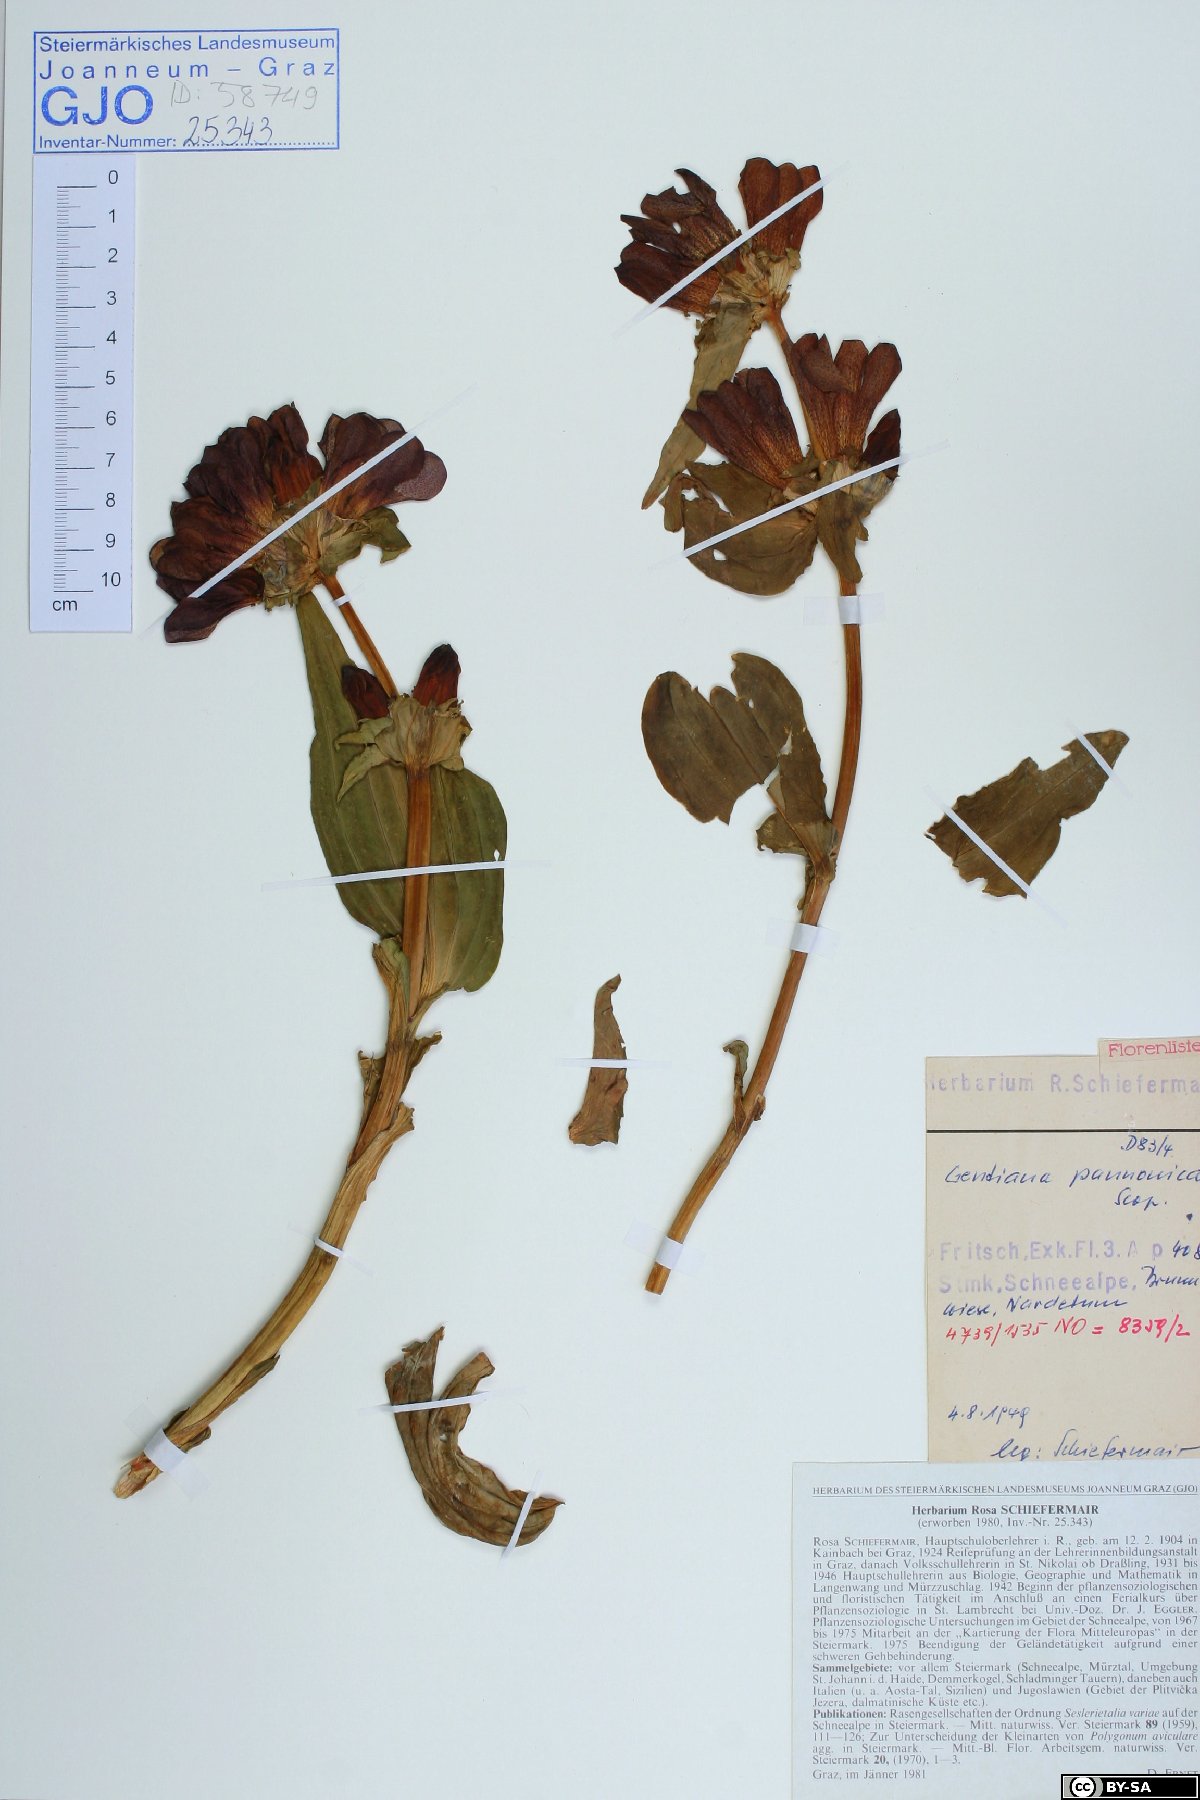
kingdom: Plantae
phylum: Tracheophyta
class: Magnoliopsida
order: Gentianales
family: Gentianaceae
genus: Gentiana
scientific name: Gentiana pannonica
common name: Hungarian gentian
